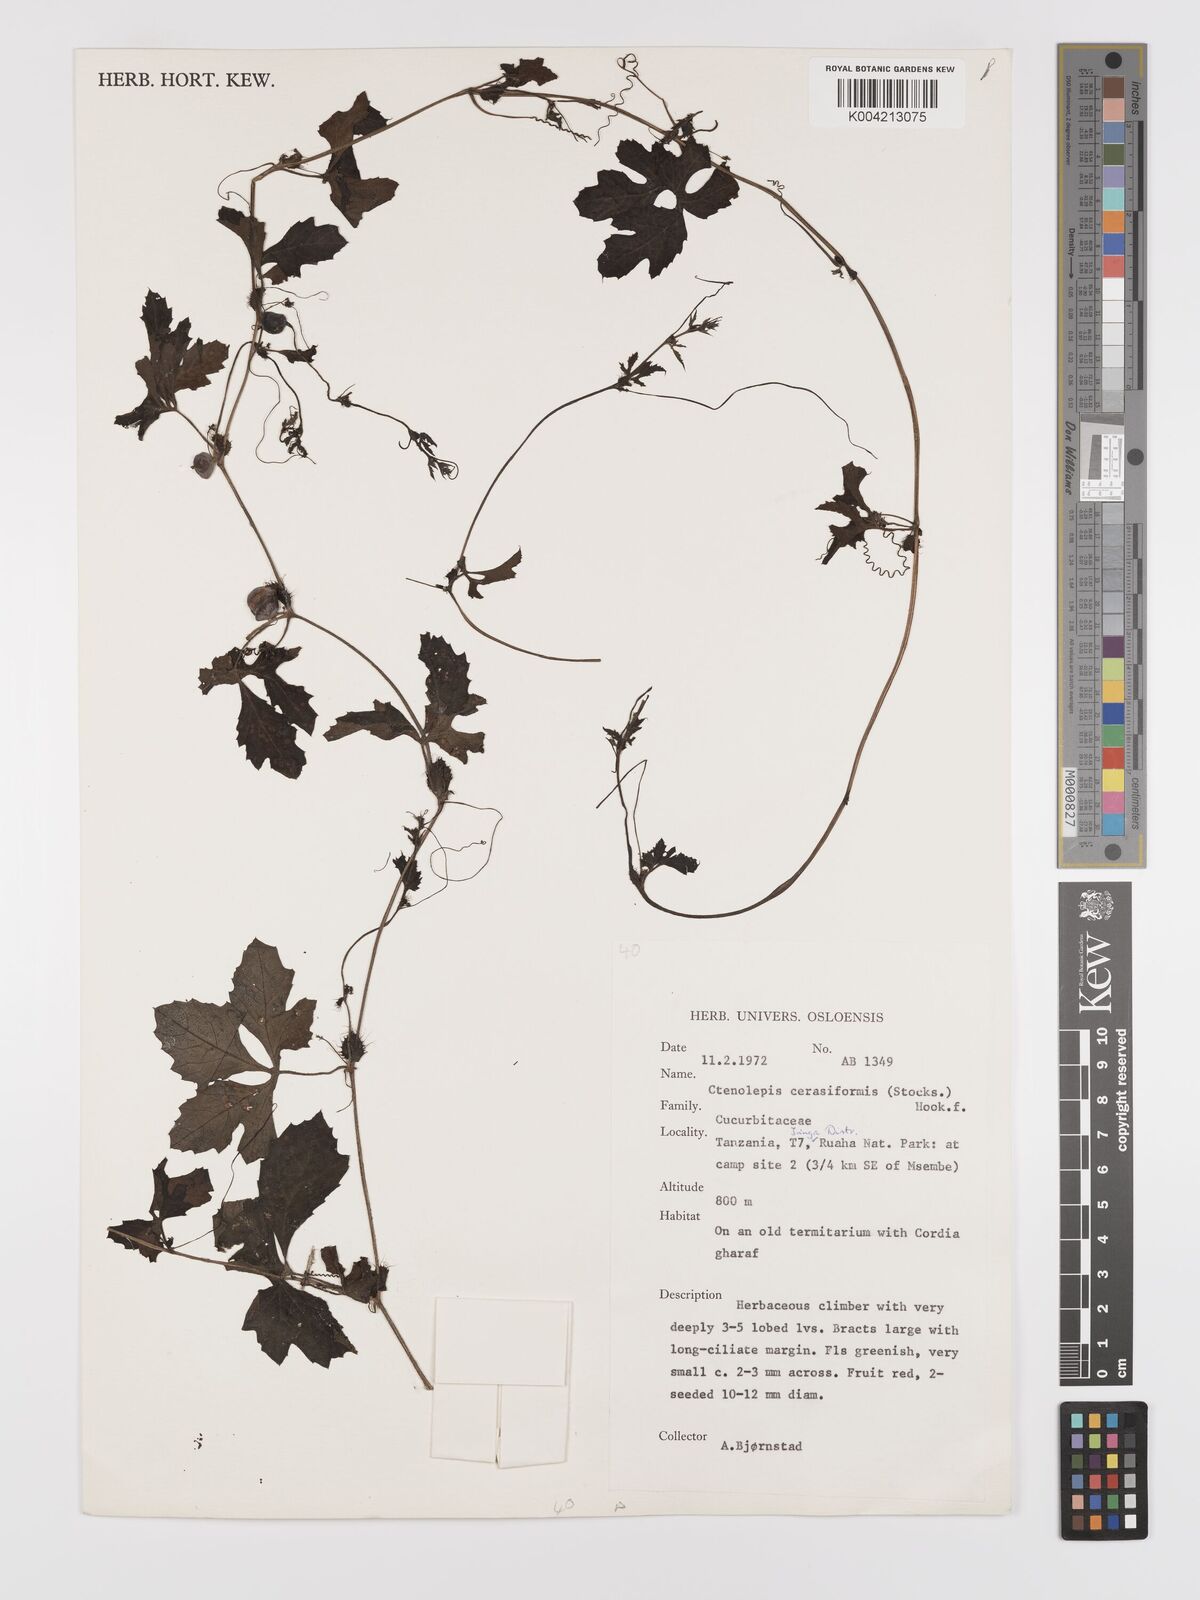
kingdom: Plantae
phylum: Tracheophyta
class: Magnoliopsida
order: Cucurbitales
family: Cucurbitaceae
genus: Blastania
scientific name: Blastania cerasiformis
